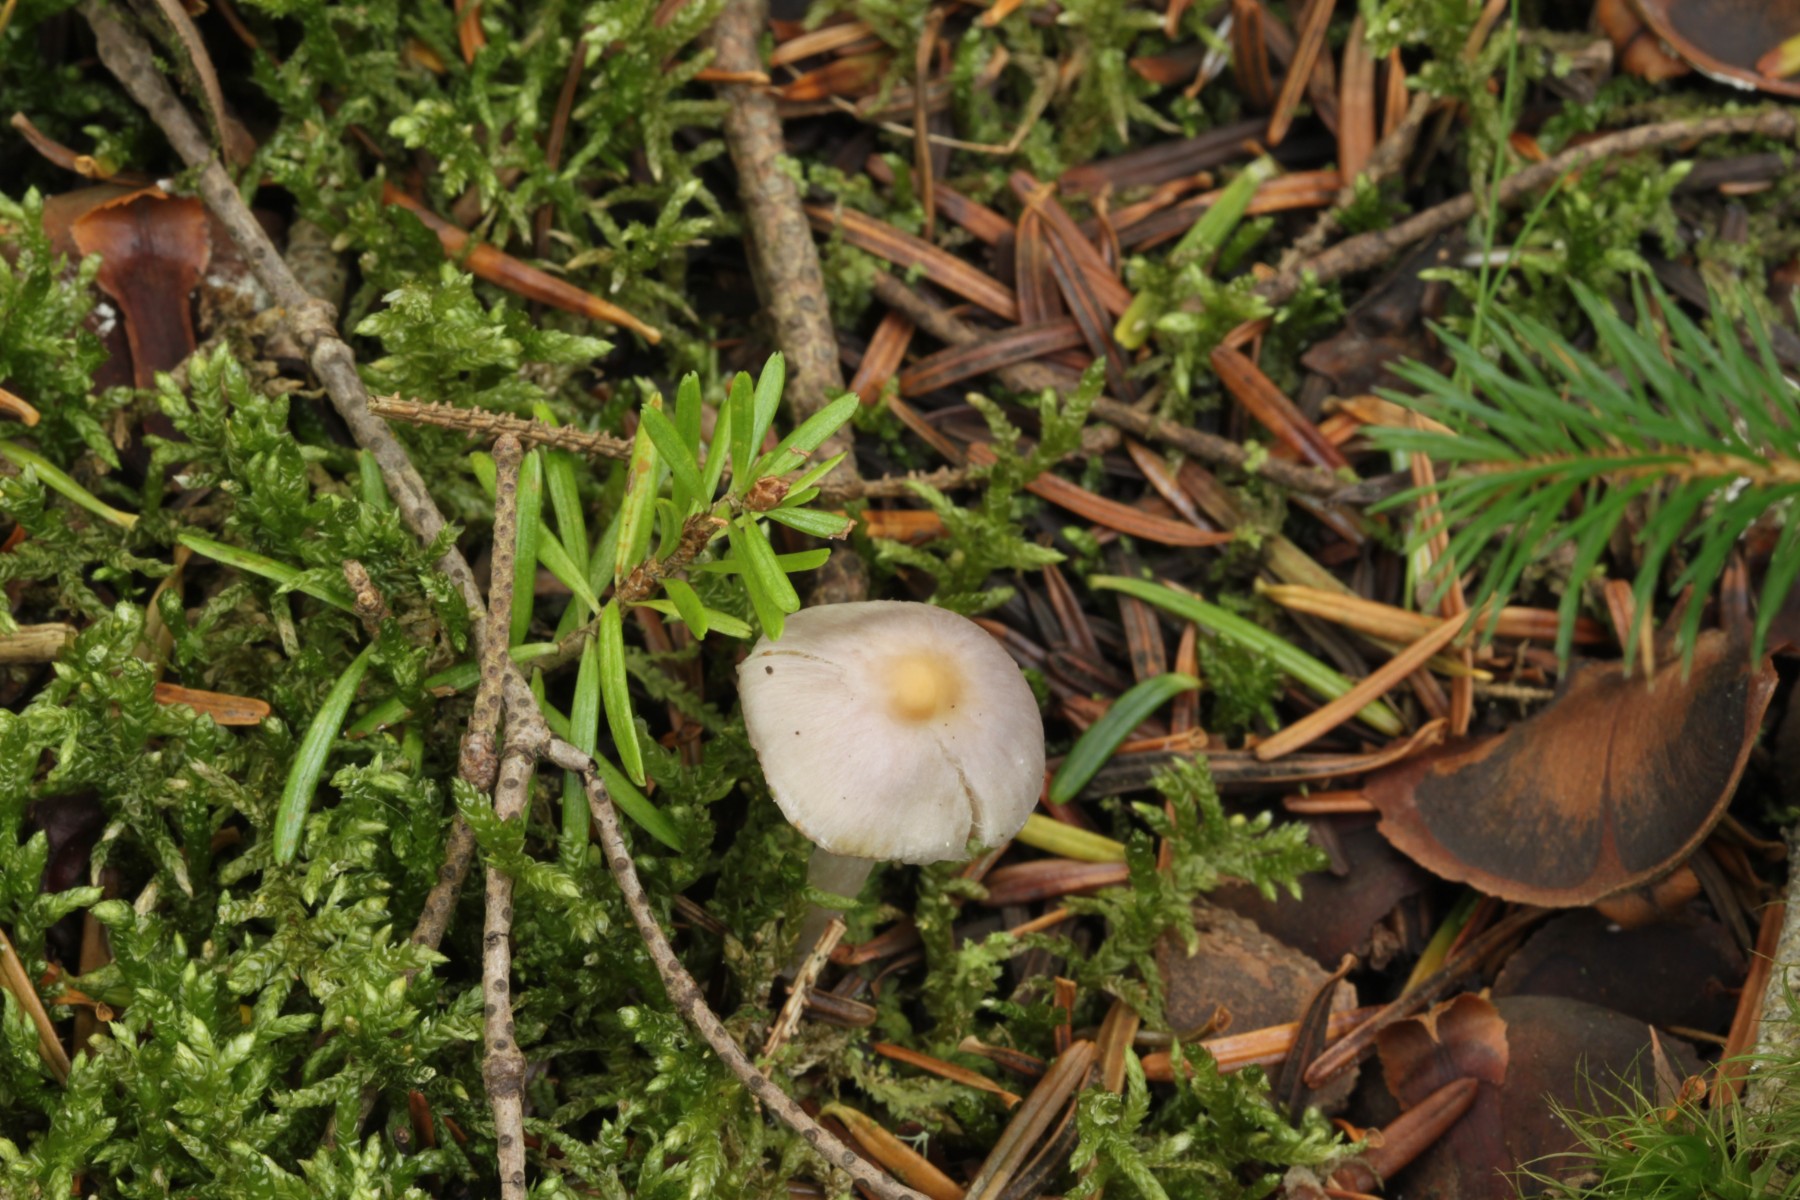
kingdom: Fungi
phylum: Basidiomycota
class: Agaricomycetes
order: Agaricales
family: Inocybaceae
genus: Inocybe
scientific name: Inocybe
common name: trævlhat
